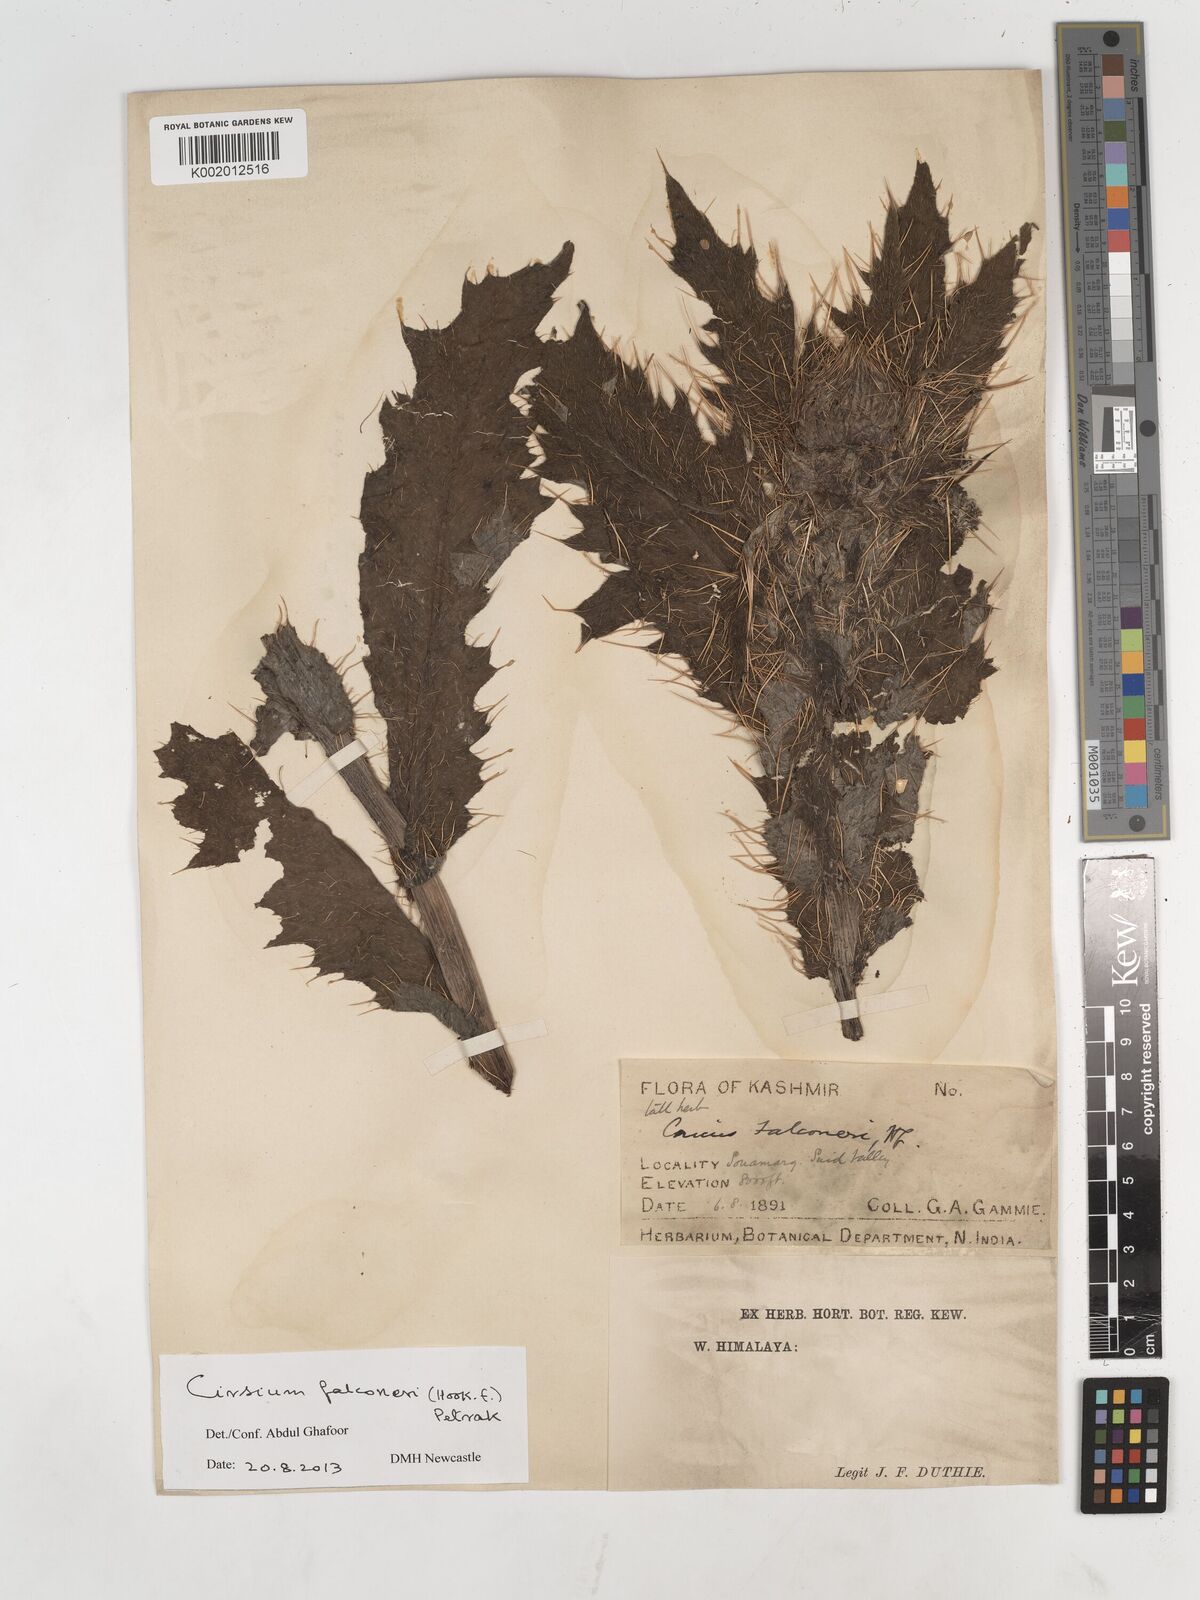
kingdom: Plantae
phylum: Tracheophyta
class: Magnoliopsida
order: Asterales
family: Asteraceae
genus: Cirsium
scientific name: Cirsium falconeri
